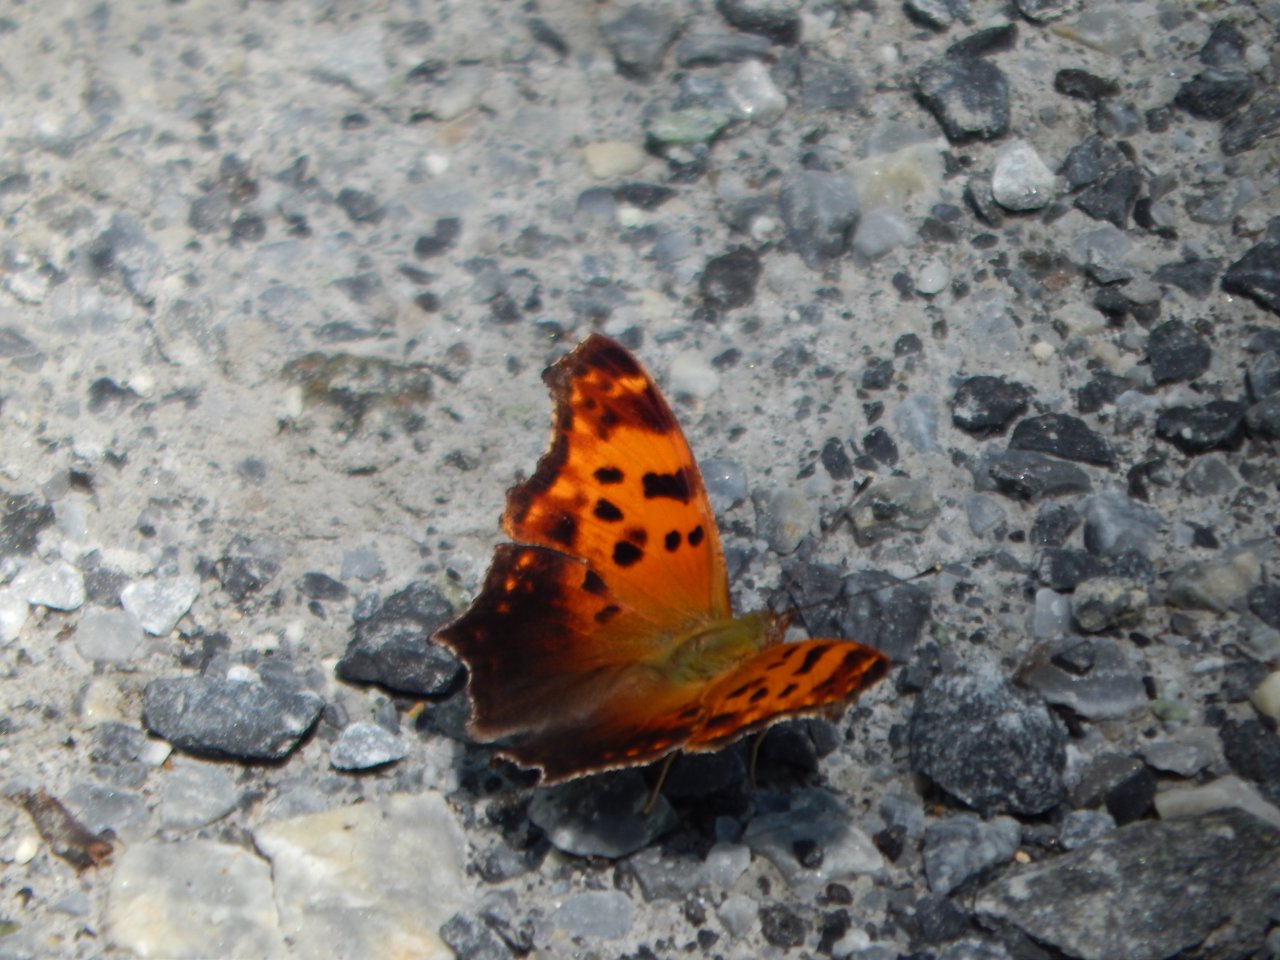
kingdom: Animalia
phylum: Arthropoda
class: Insecta
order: Lepidoptera
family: Nymphalidae
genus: Polygonia
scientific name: Polygonia comma
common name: Eastern Comma
